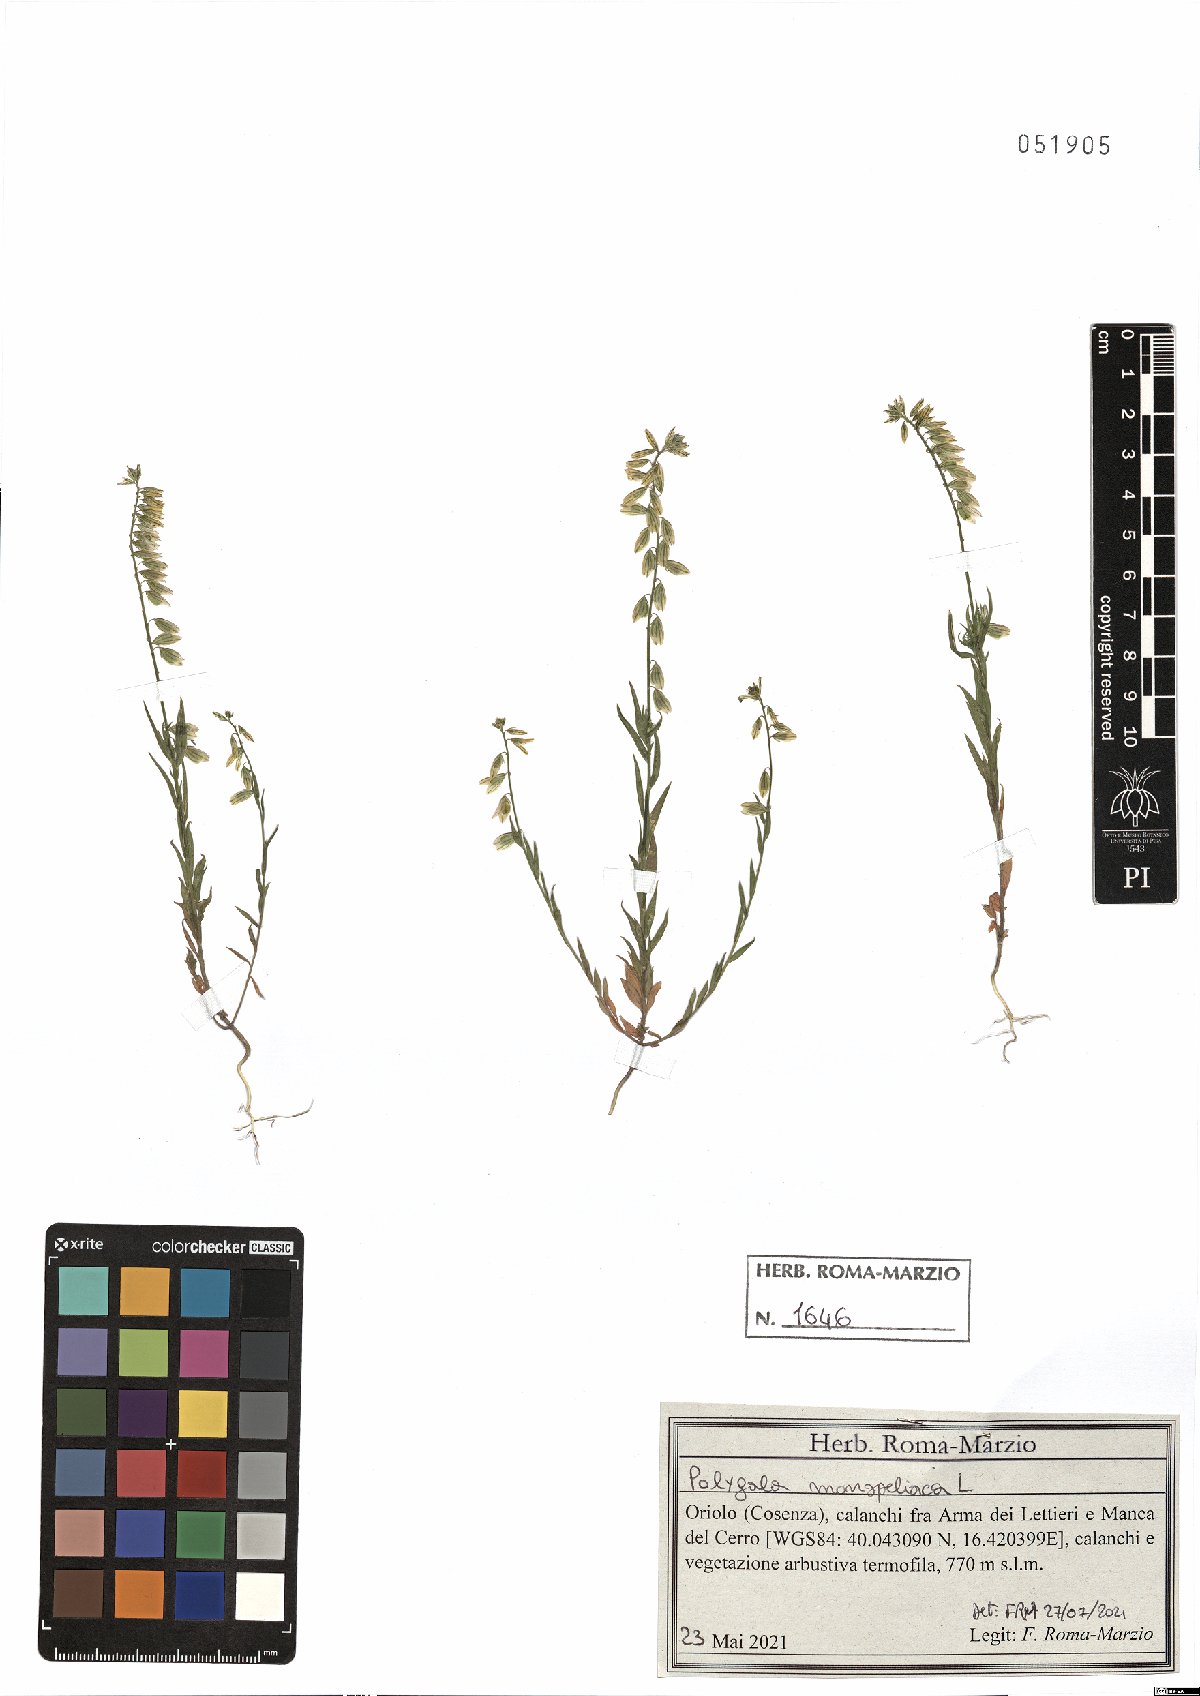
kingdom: Plantae
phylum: Tracheophyta
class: Magnoliopsida
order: Fabales
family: Polygalaceae
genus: Polygala
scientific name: Polygala monspeliaca
